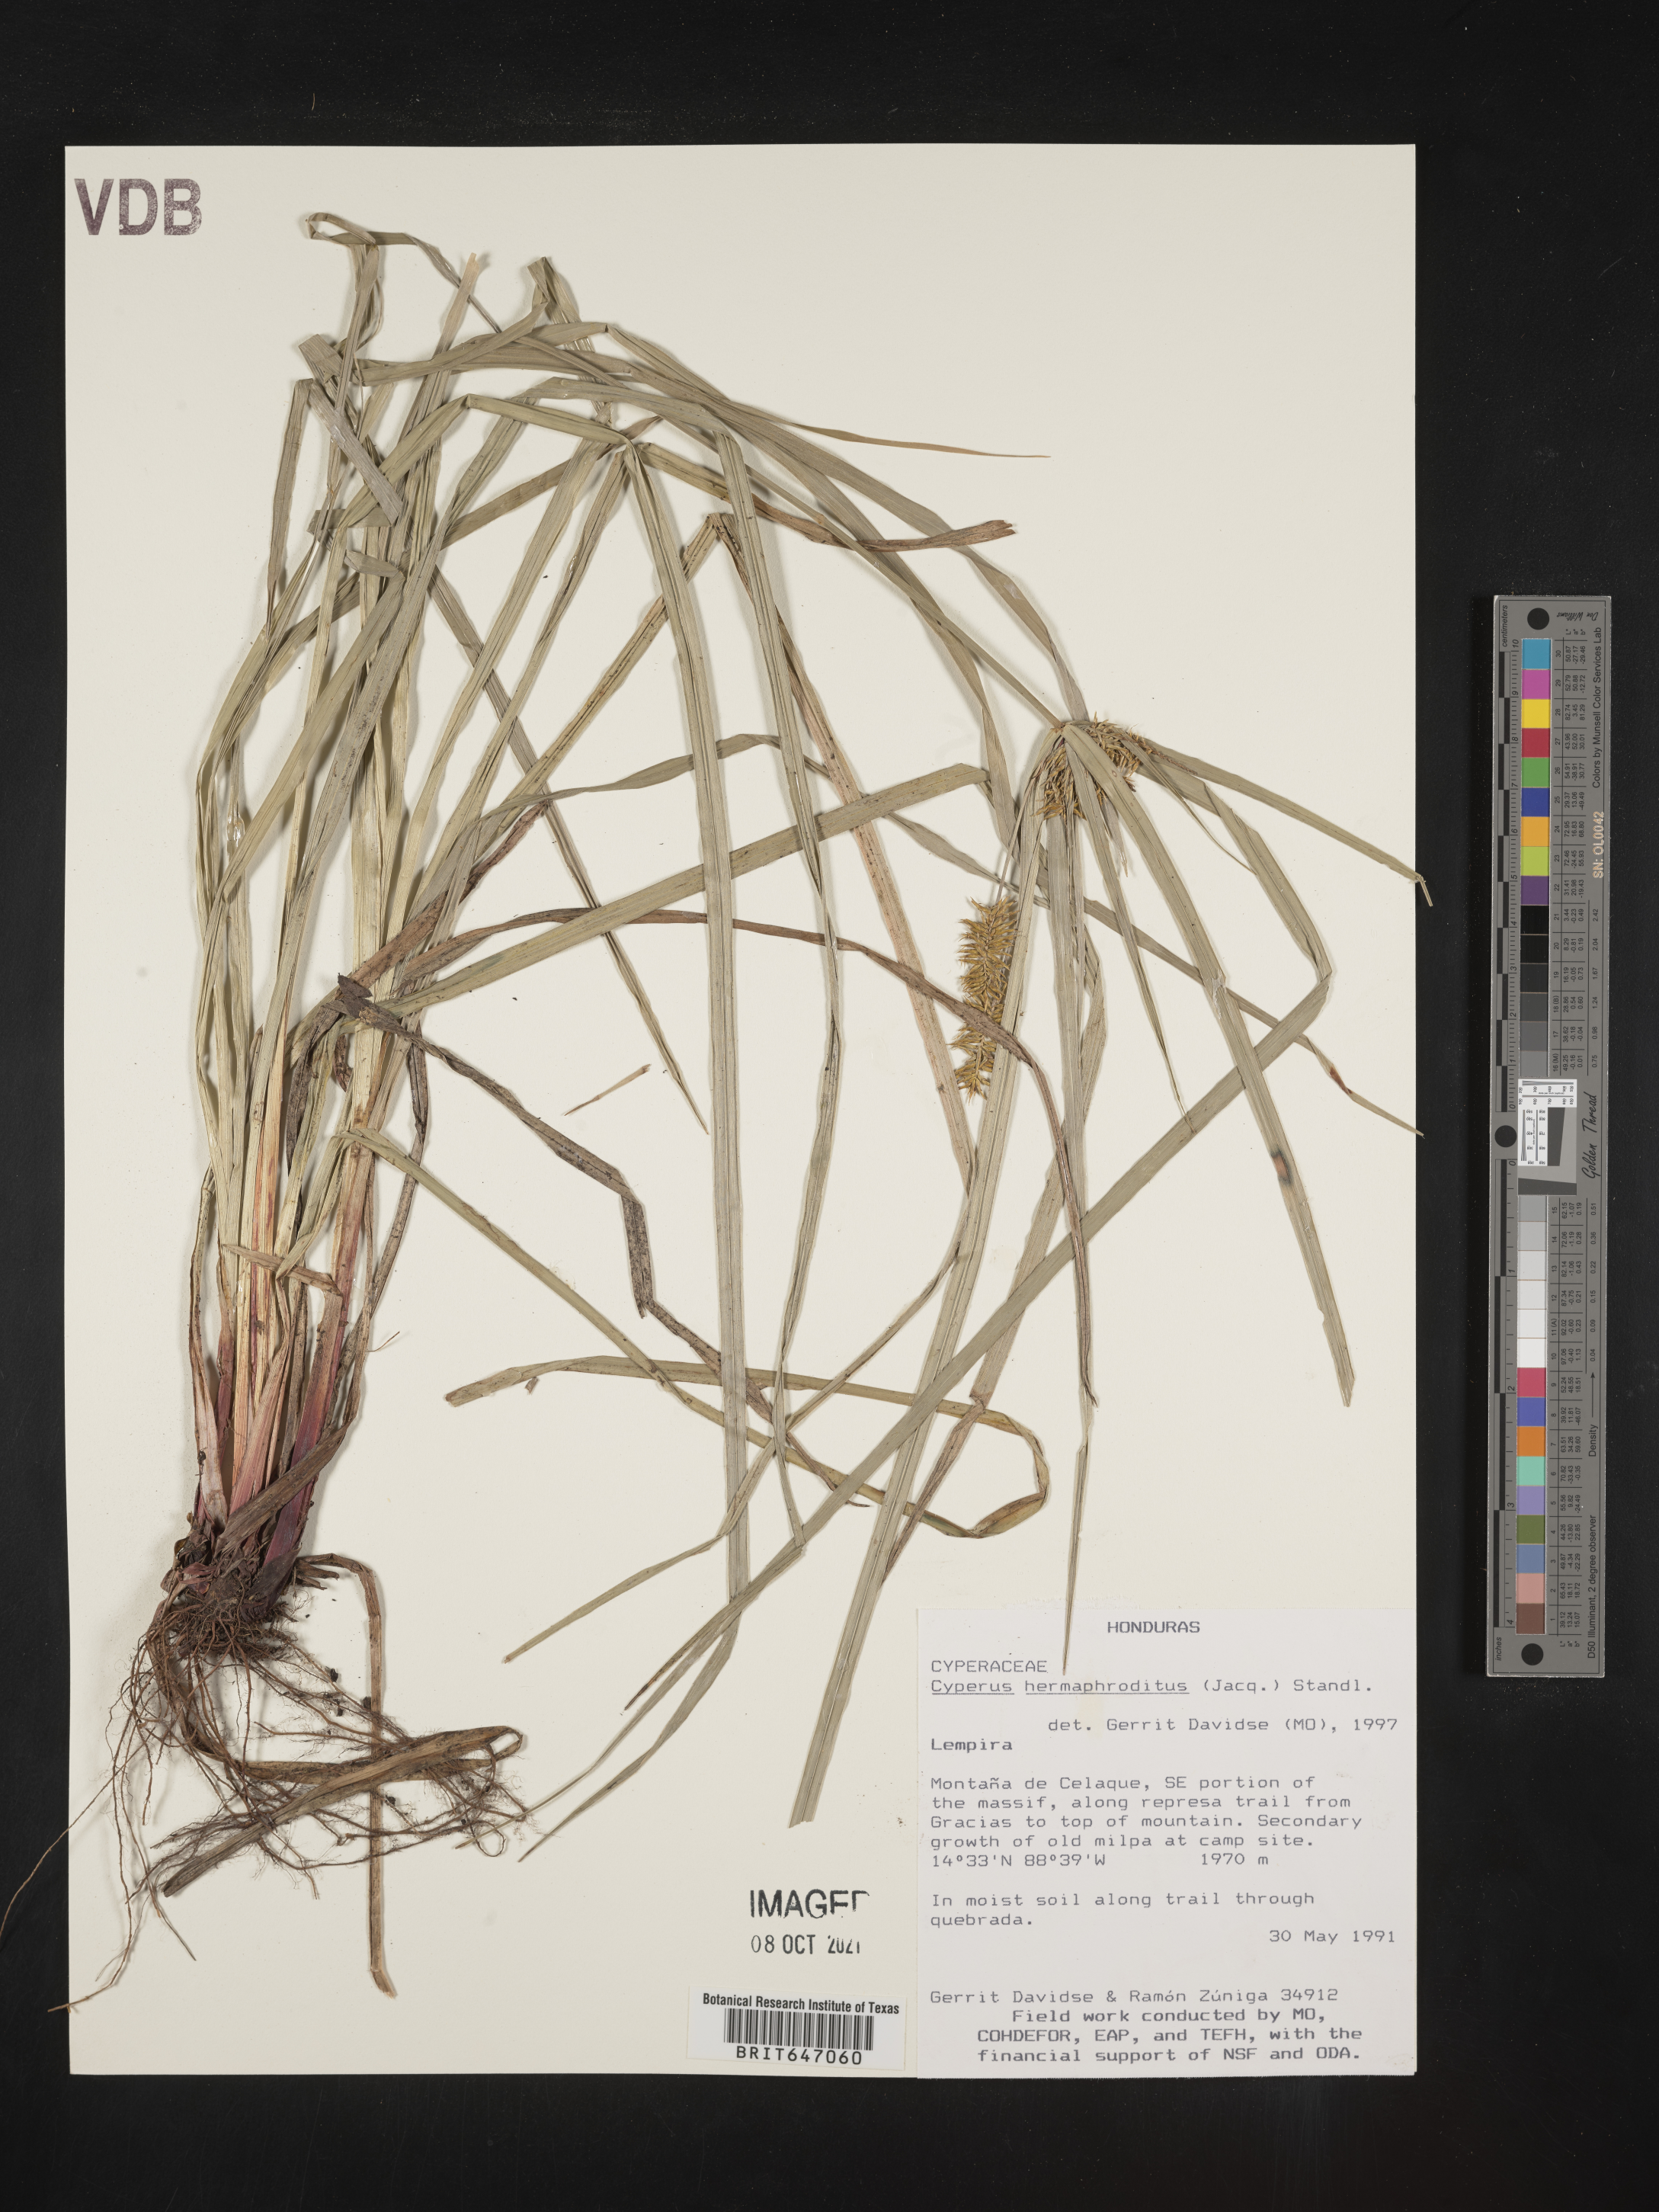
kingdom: Plantae
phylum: Tracheophyta
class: Liliopsida
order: Poales
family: Cyperaceae
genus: Cyperus
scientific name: Cyperus hermaphroditus
